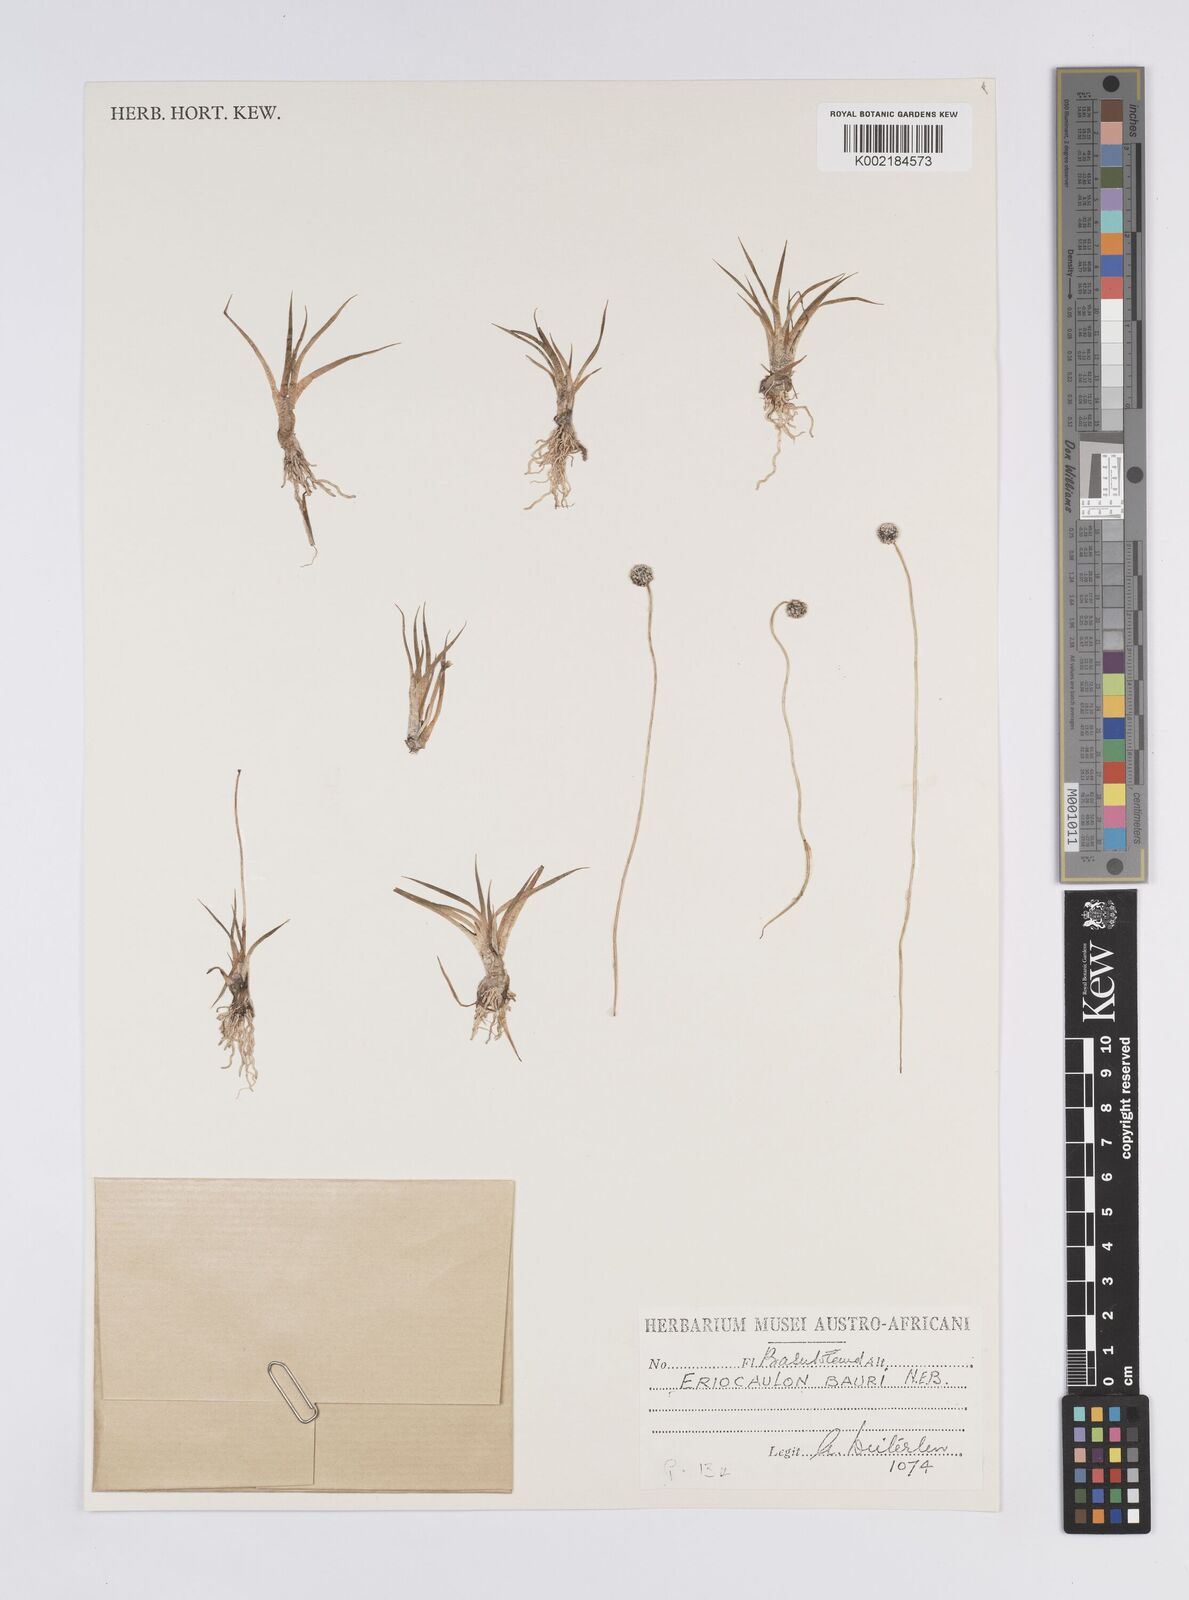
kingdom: Plantae
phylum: Tracheophyta
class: Liliopsida
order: Poales
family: Eriocaulaceae
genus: Eriocaulon
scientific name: Eriocaulon sonderianum
